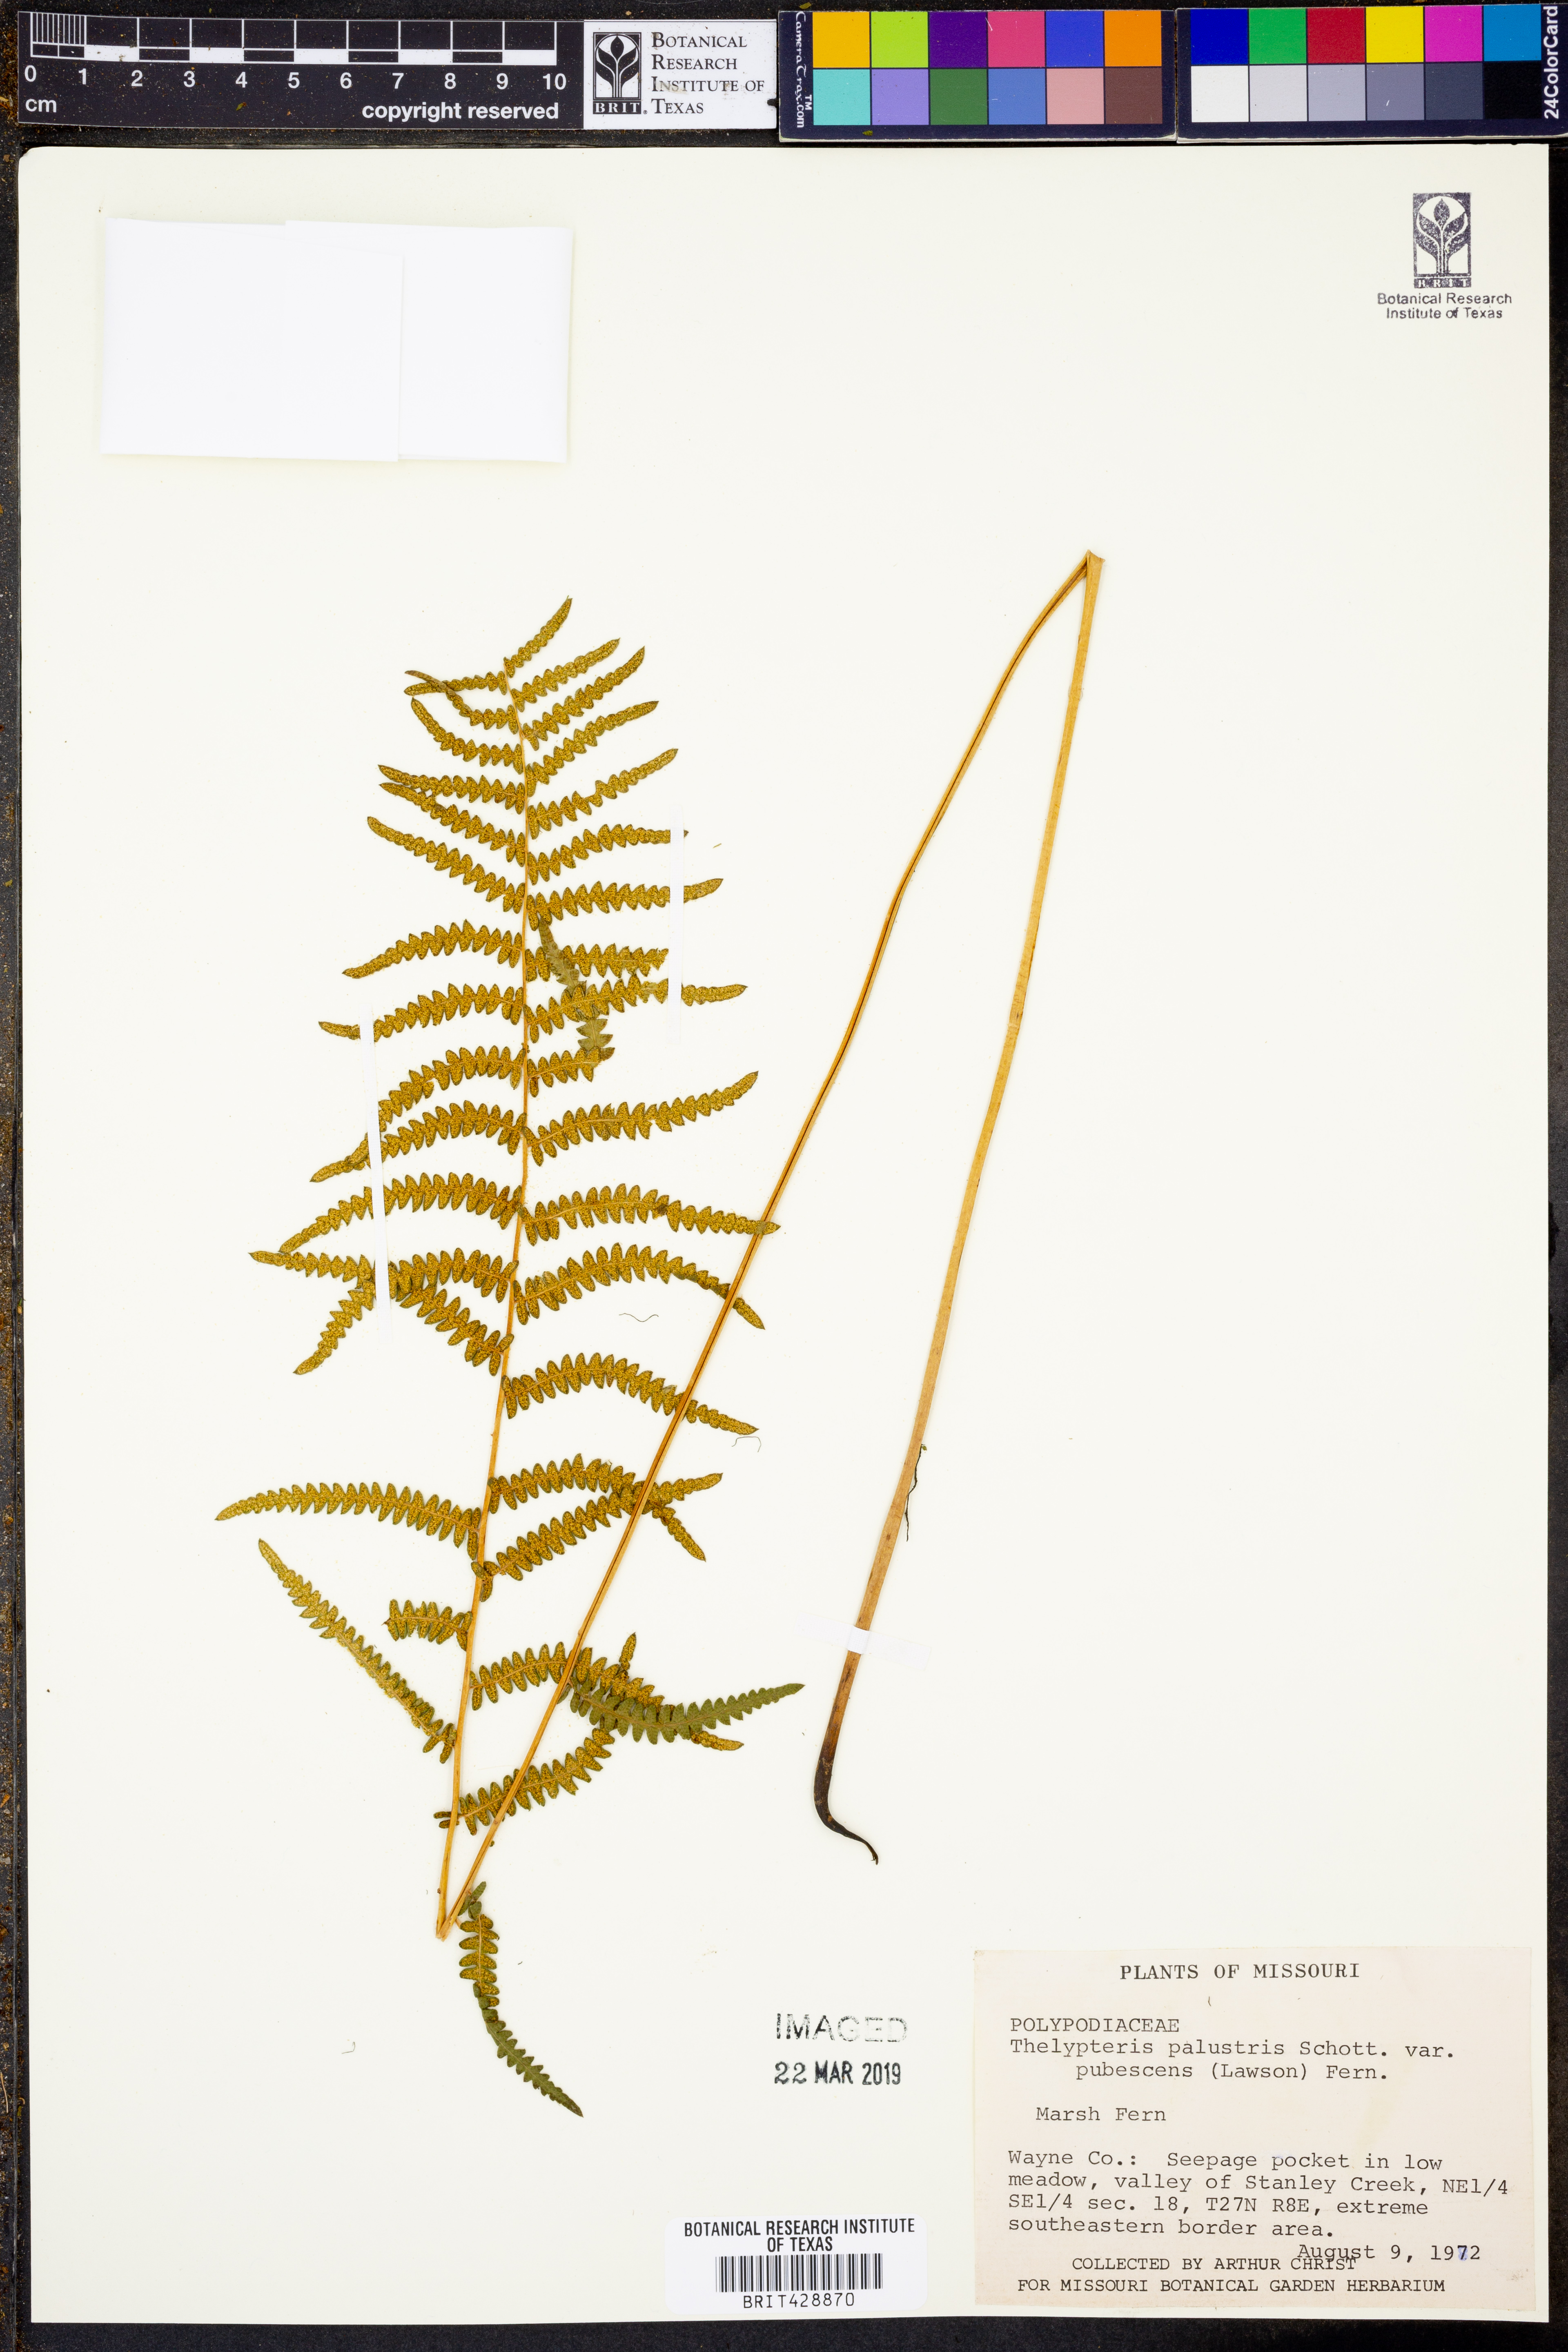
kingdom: Plantae
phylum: Tracheophyta
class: Polypodiopsida
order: Polypodiales
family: Thelypteridaceae
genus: Thelypteris
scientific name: Thelypteris palustris
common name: Marsh fern
